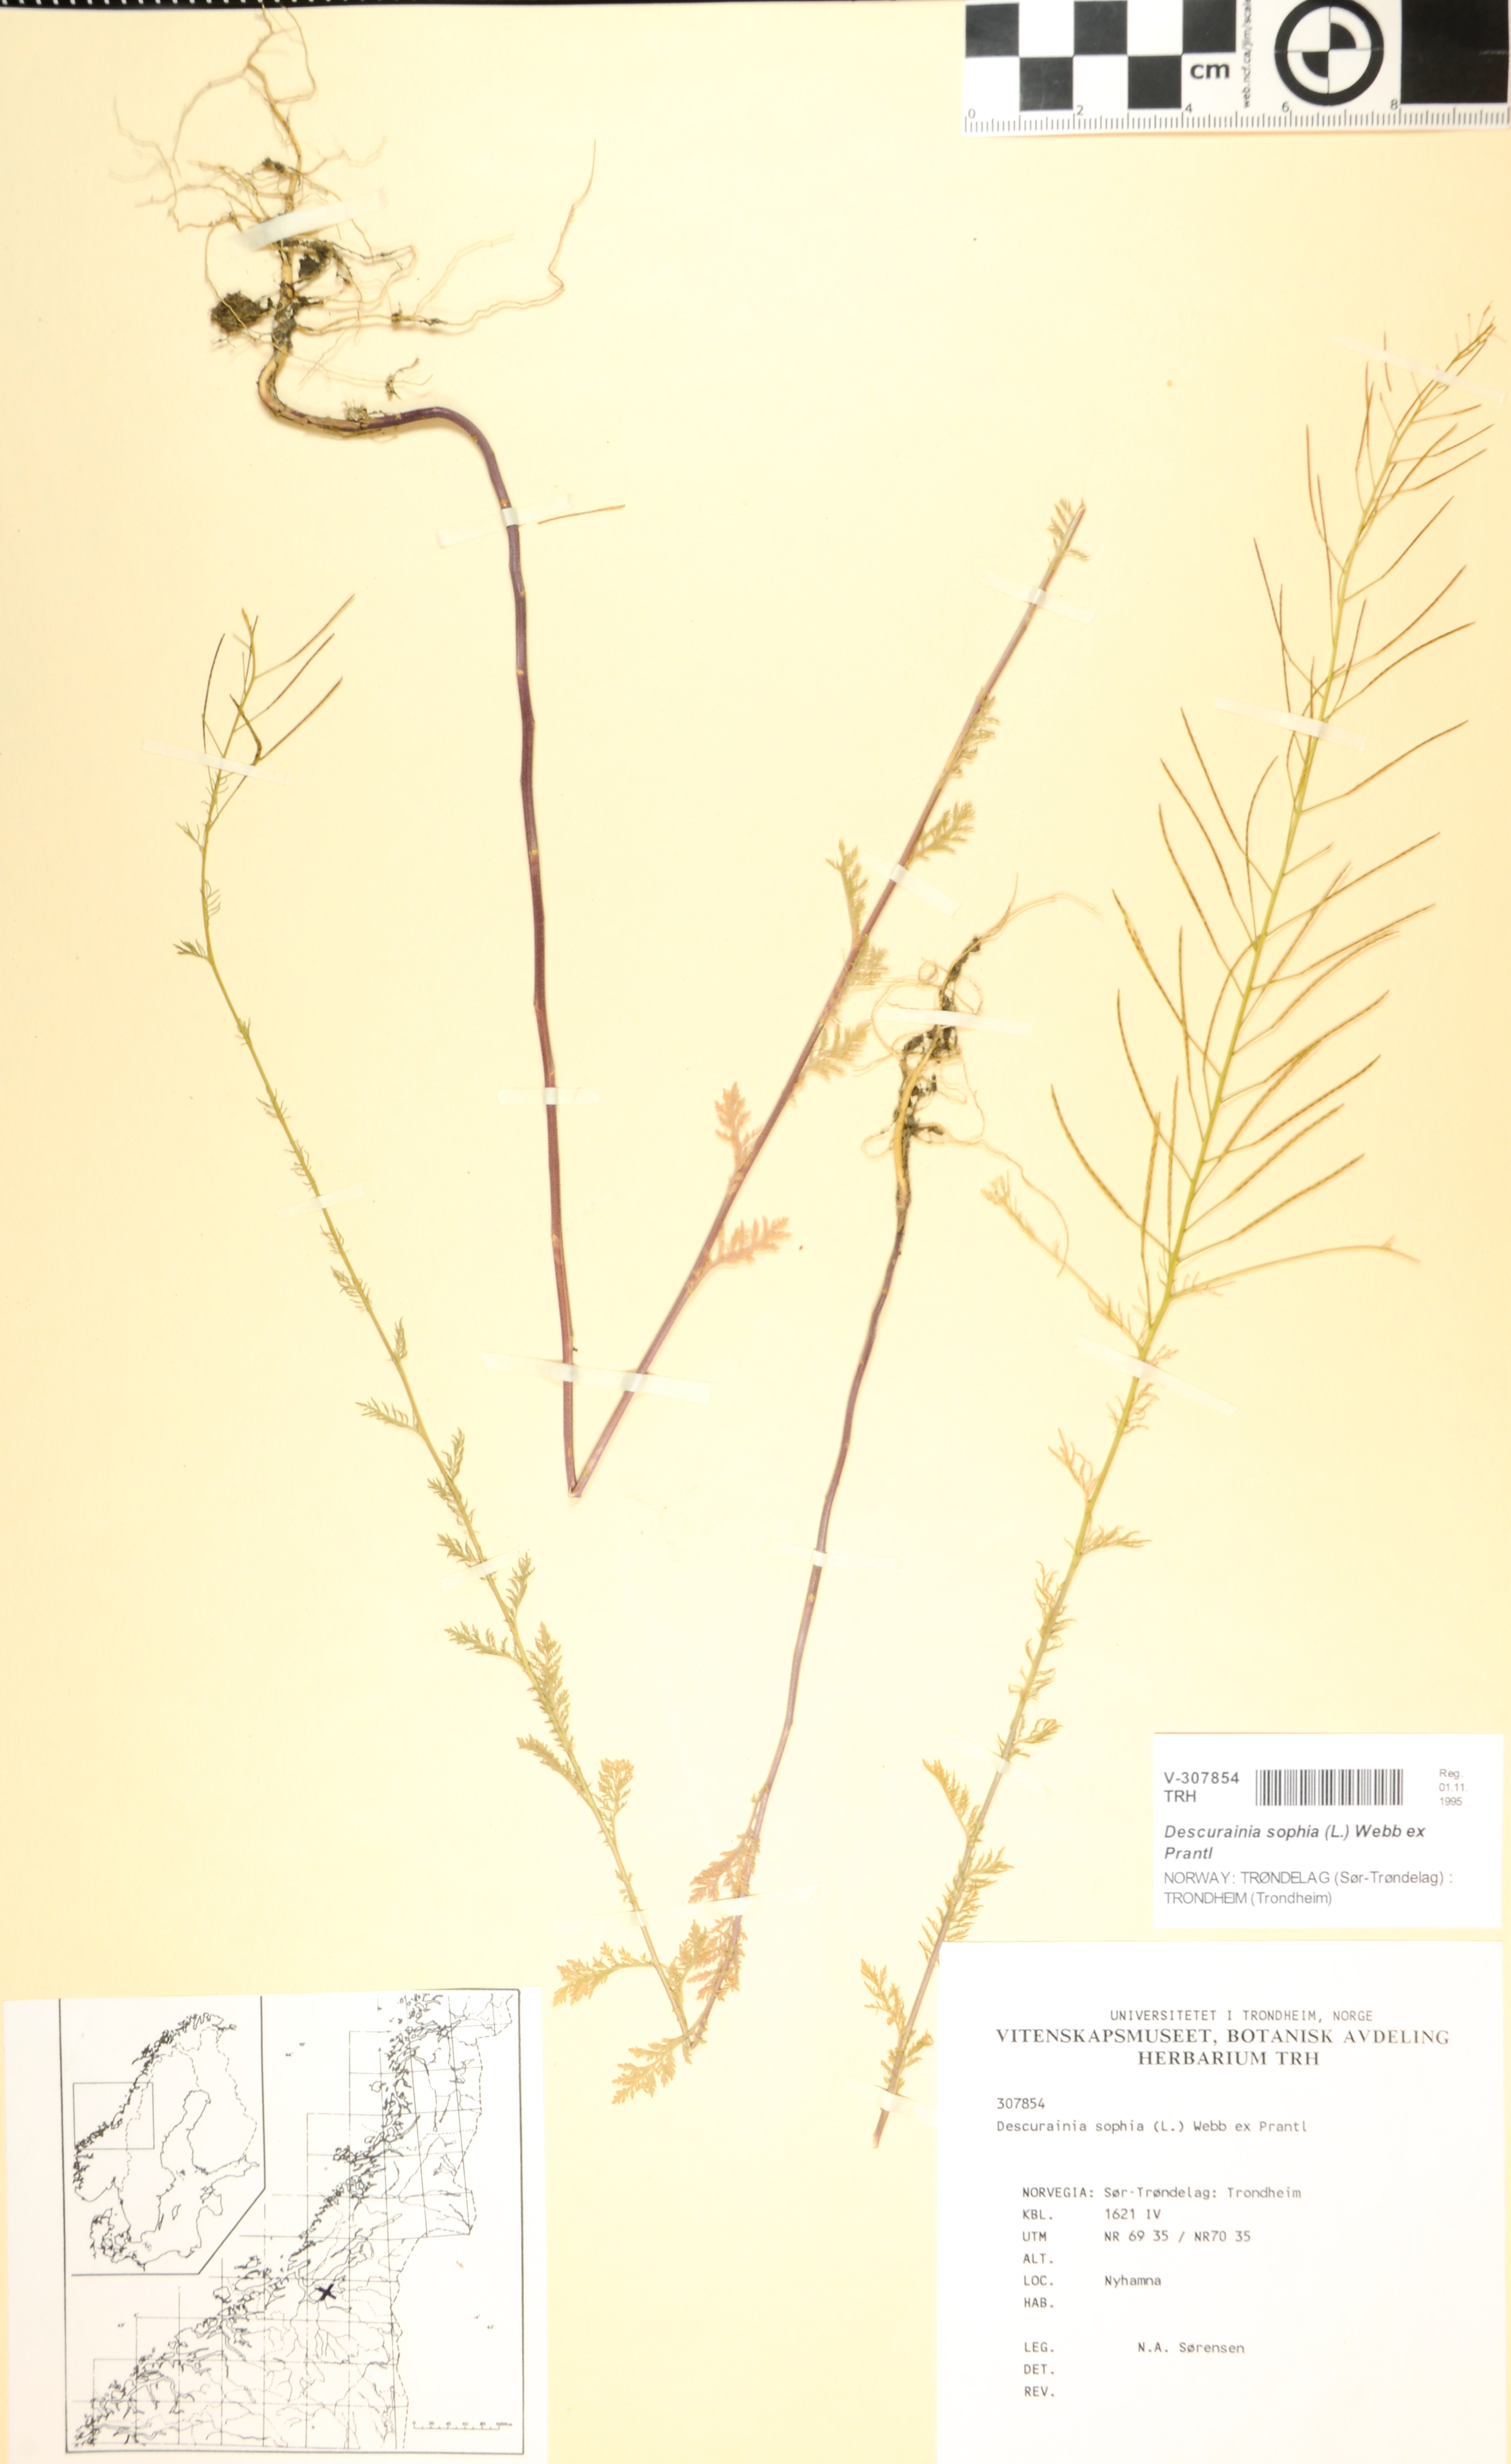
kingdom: Plantae
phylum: Tracheophyta
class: Magnoliopsida
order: Brassicales
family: Brassicaceae
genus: Descurainia
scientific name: Descurainia sophia
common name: Flixweed
